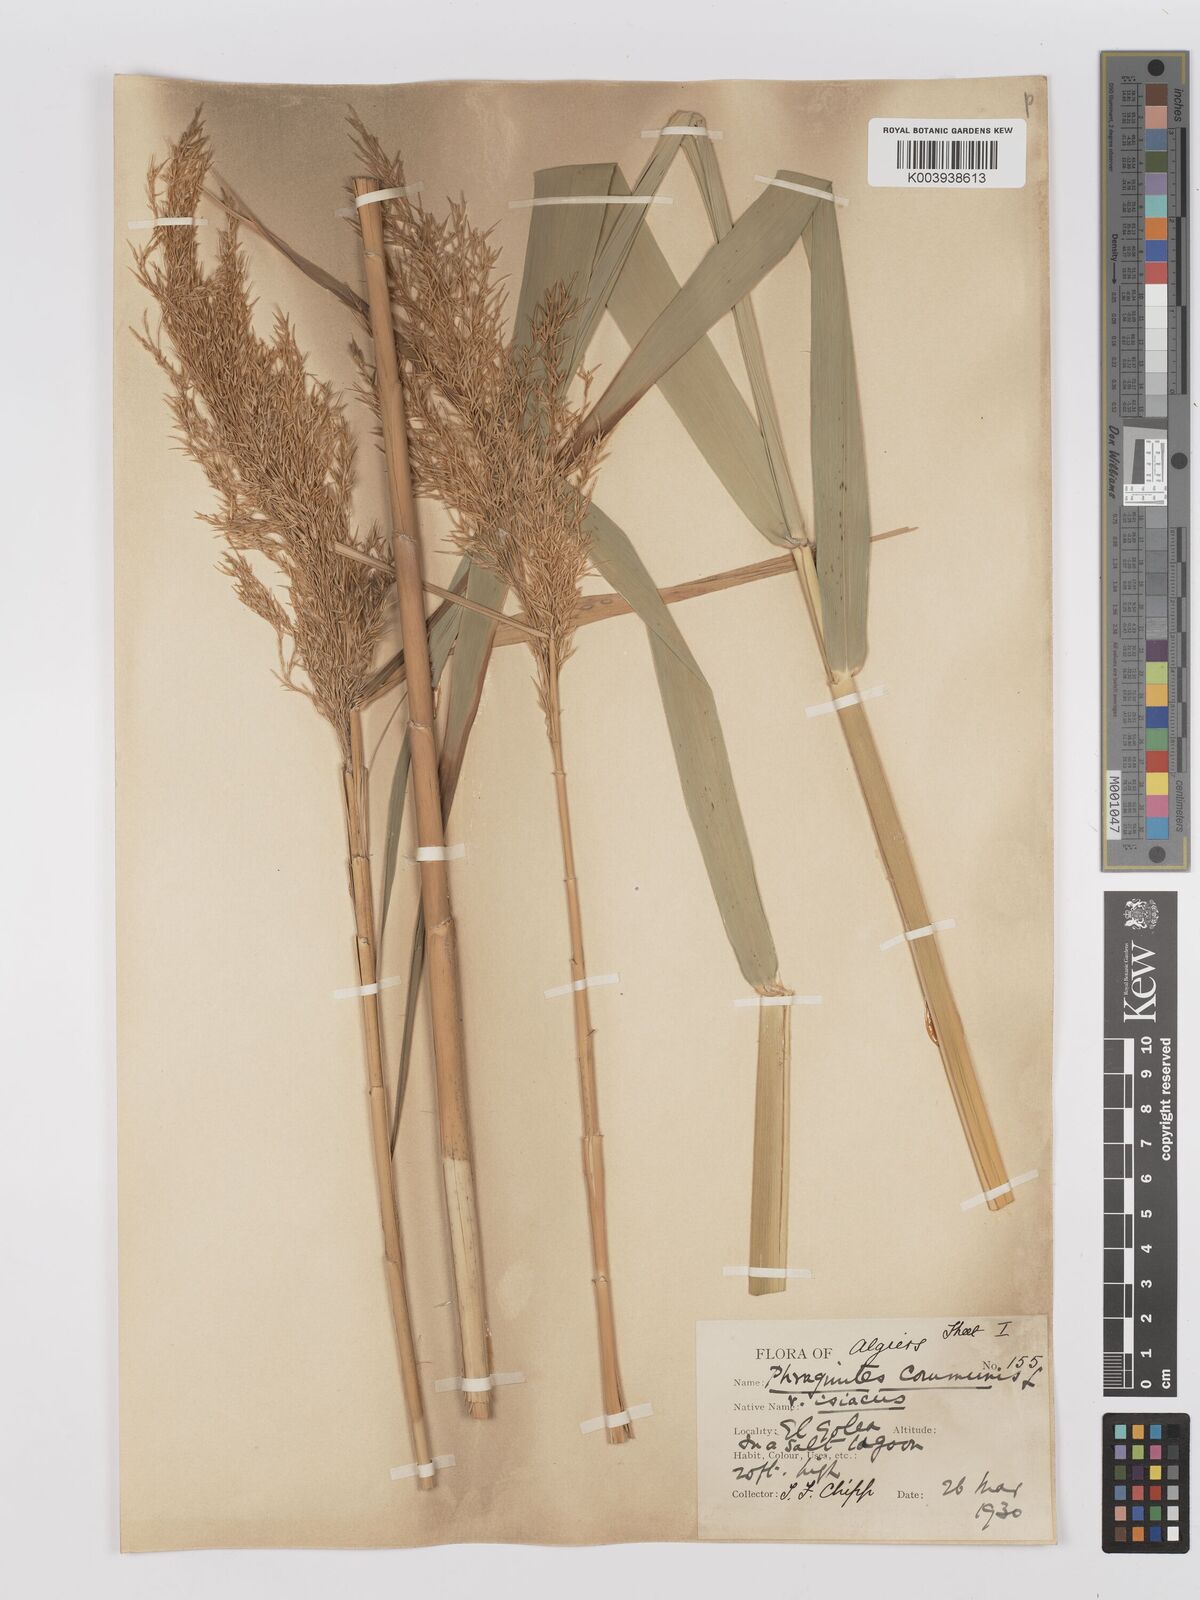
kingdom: Plantae
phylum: Tracheophyta
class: Liliopsida
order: Poales
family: Poaceae
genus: Phragmites
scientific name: Phragmites australis
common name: Common reed
